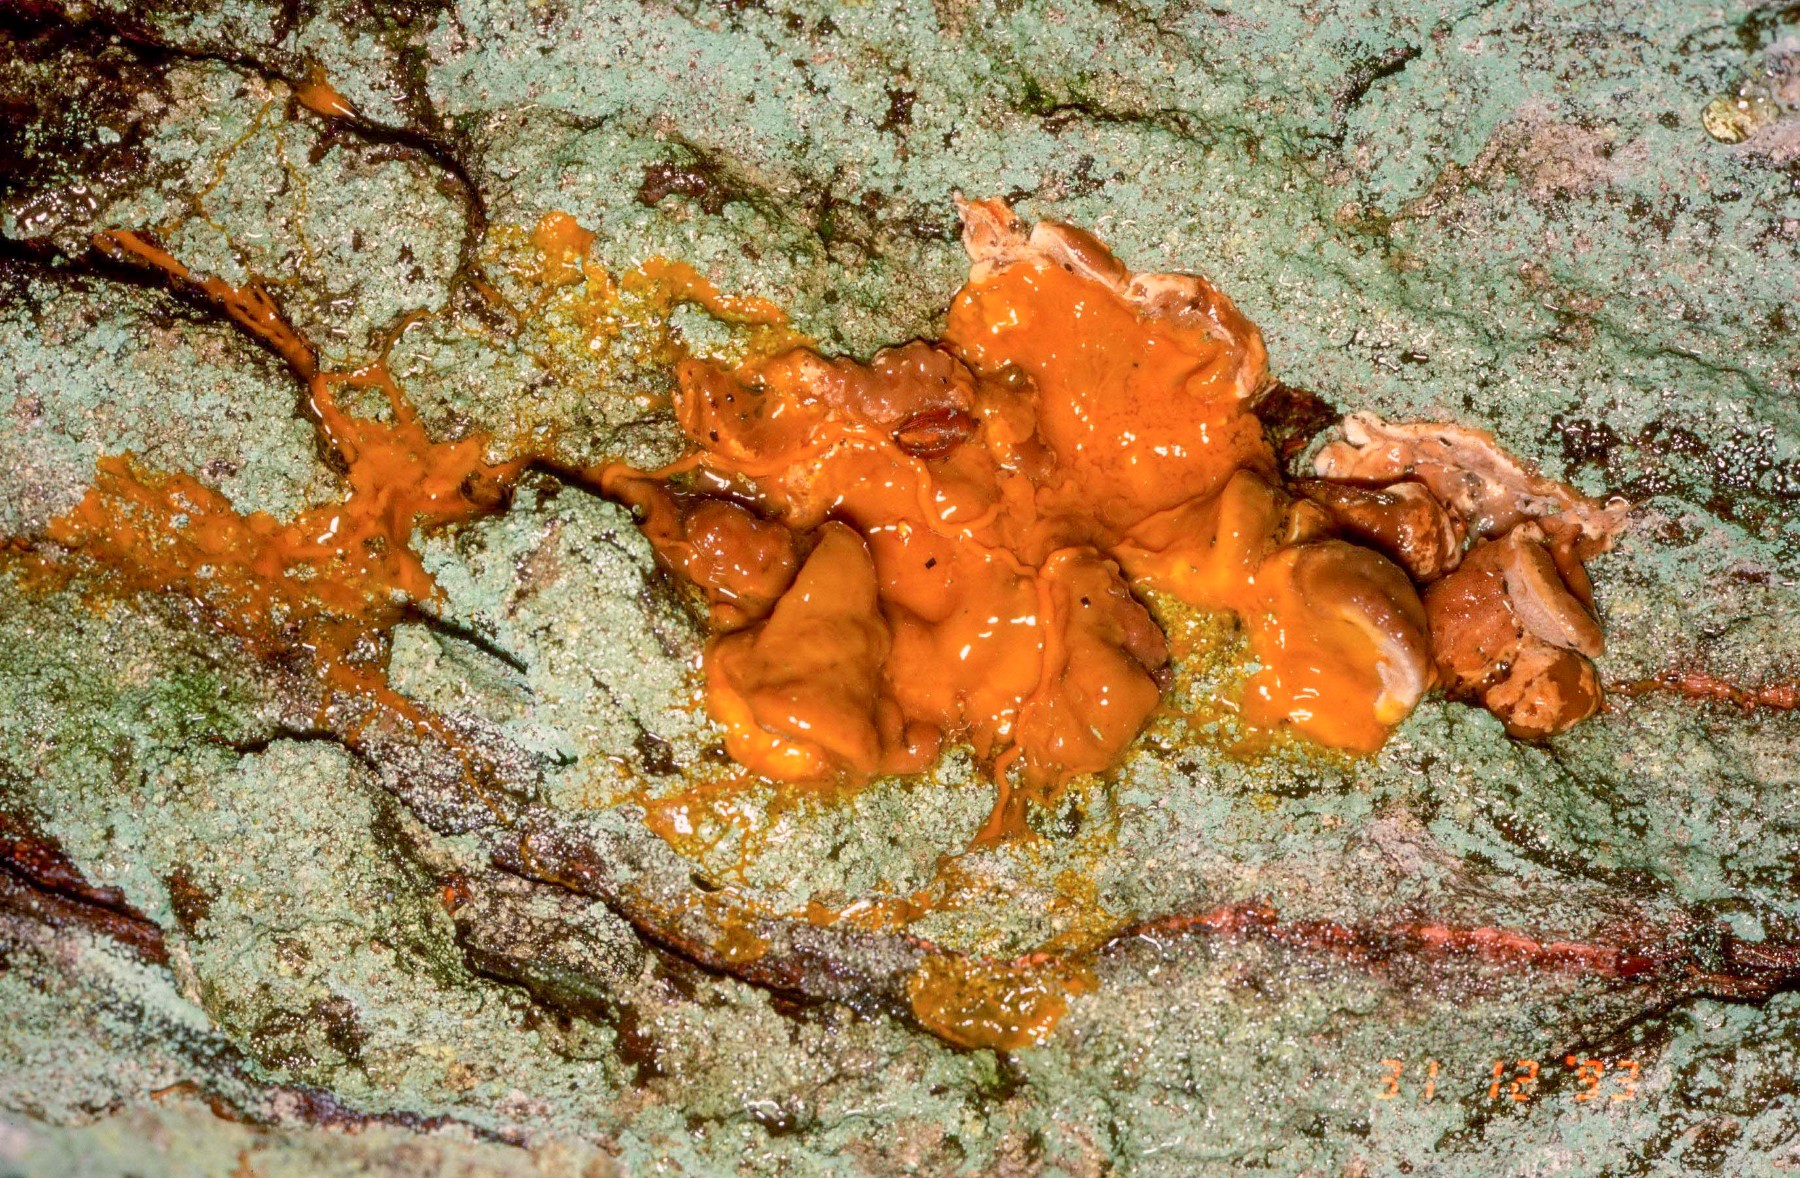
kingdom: Protozoa
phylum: Mycetozoa
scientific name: Mycetozoa
